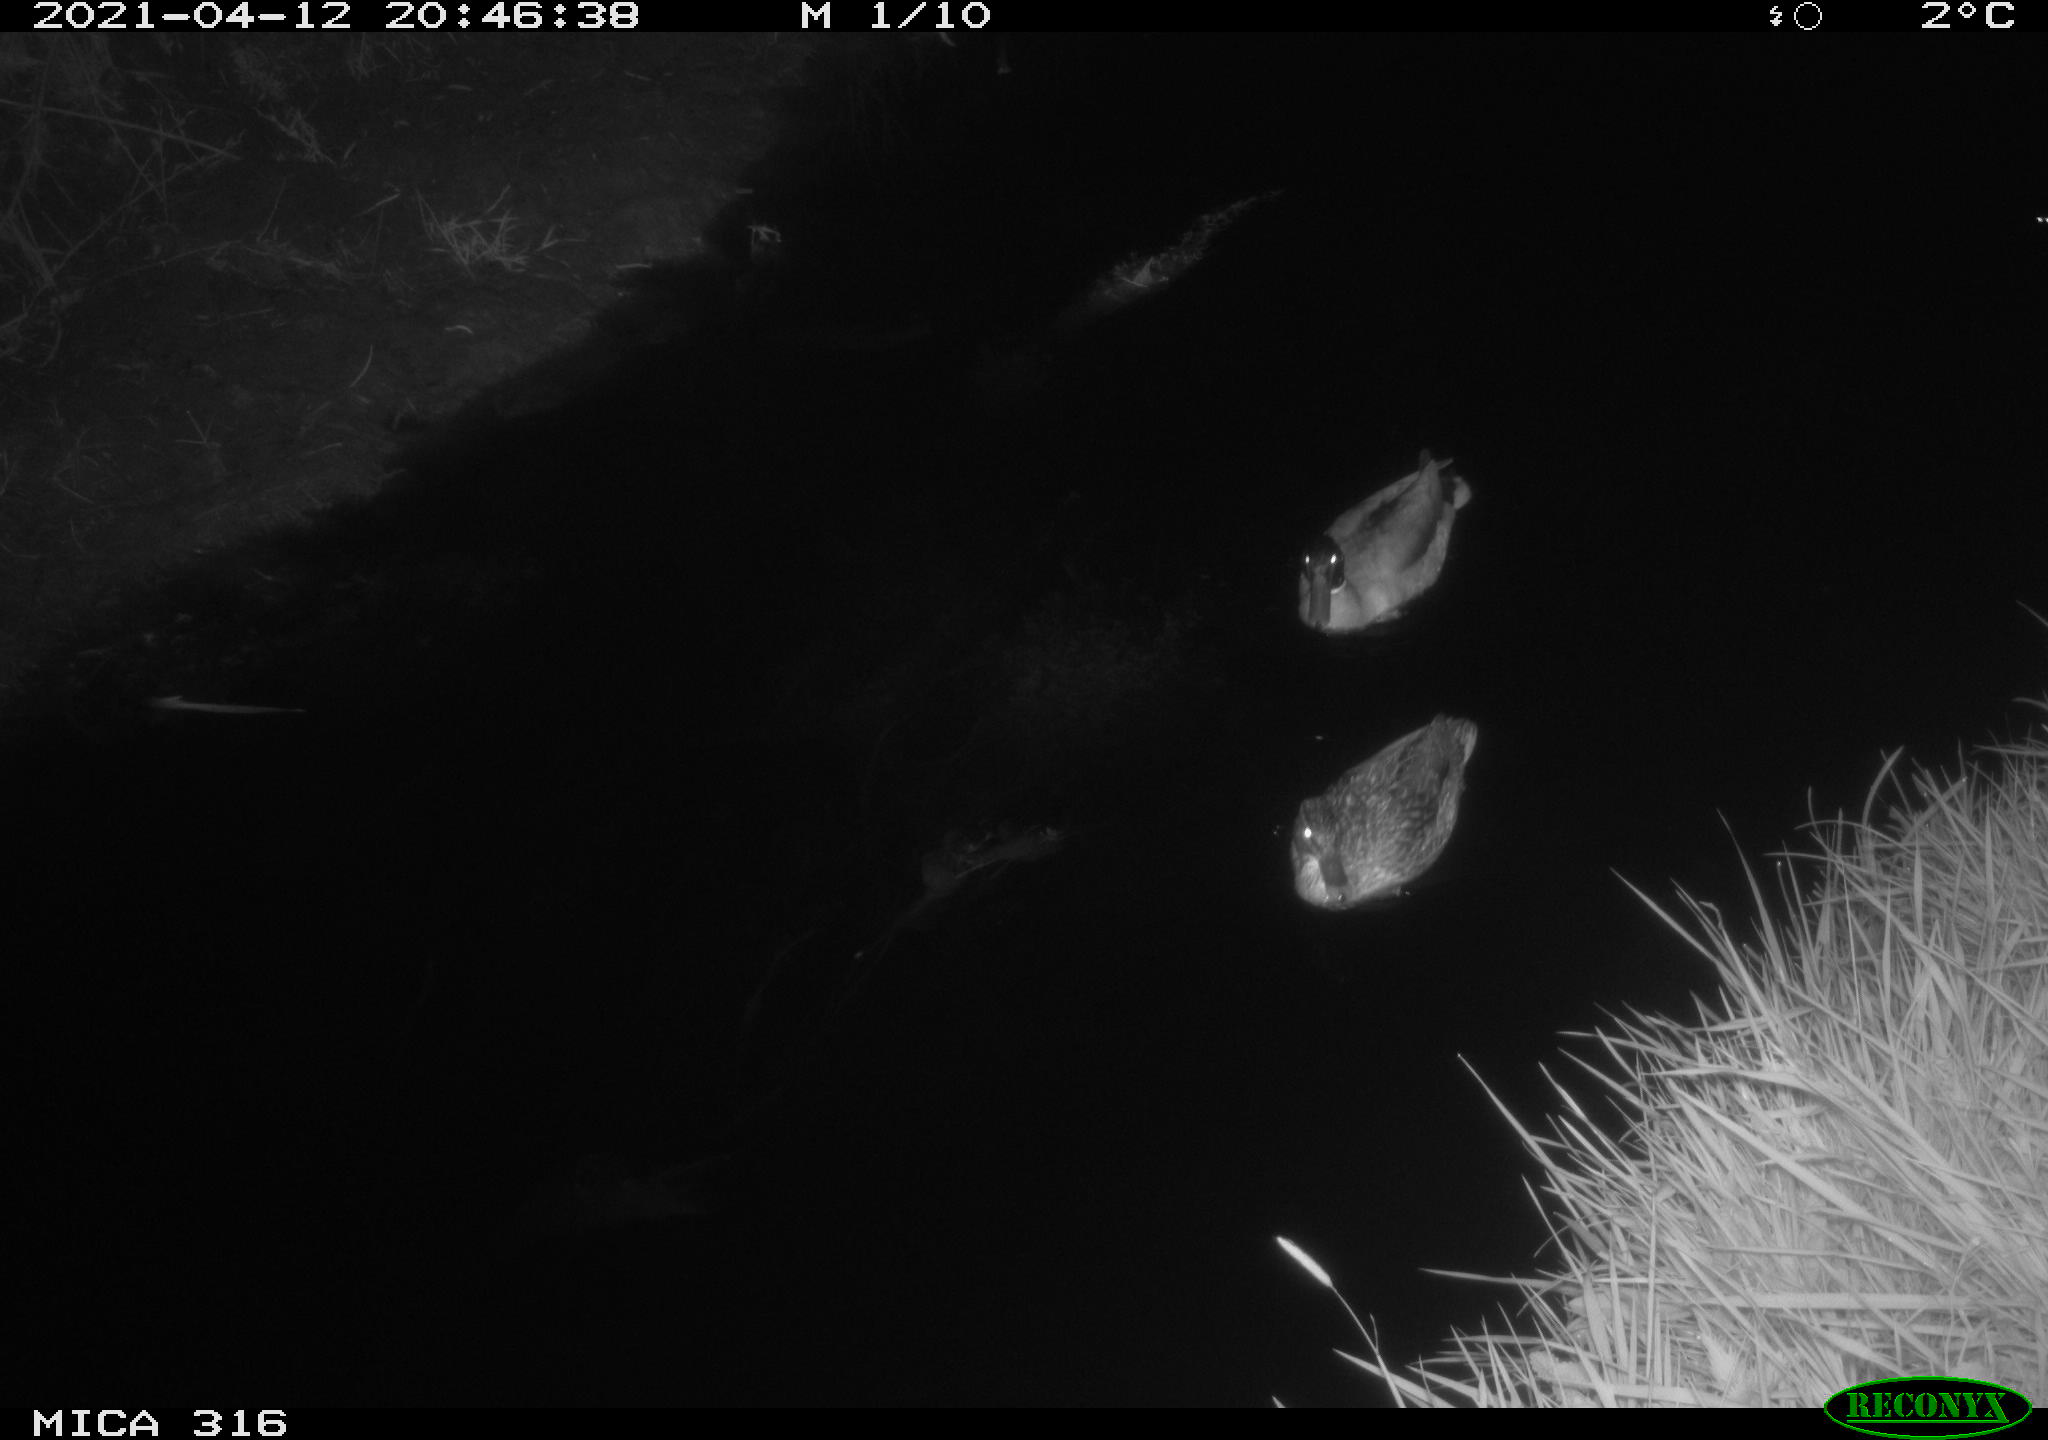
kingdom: Animalia
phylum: Chordata
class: Aves
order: Anseriformes
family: Anatidae
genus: Anas
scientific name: Anas platyrhynchos
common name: Mallard
